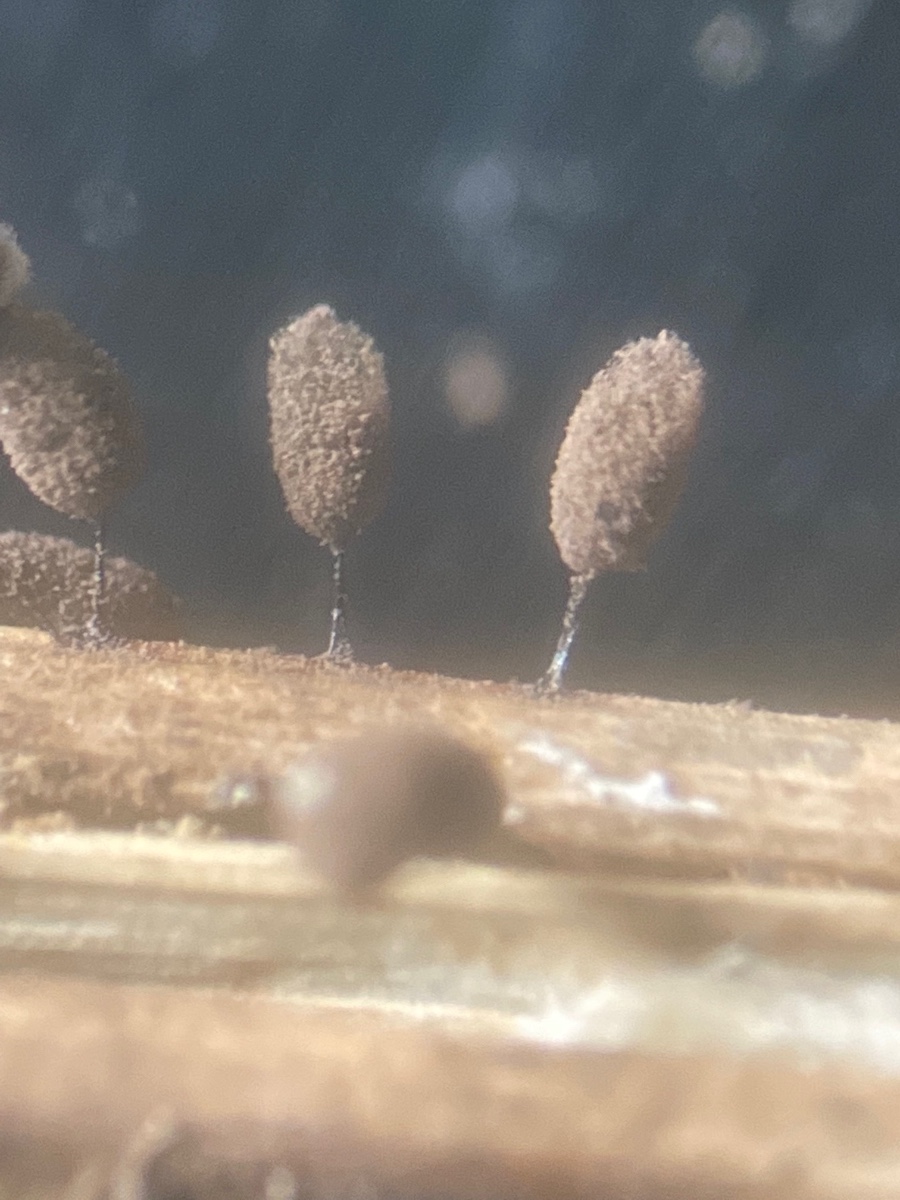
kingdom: Protozoa
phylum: Mycetozoa
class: Myxomycetes
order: Stemonitidales
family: Stemonitidaceae
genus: Comatricha
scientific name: Comatricha pulchella
